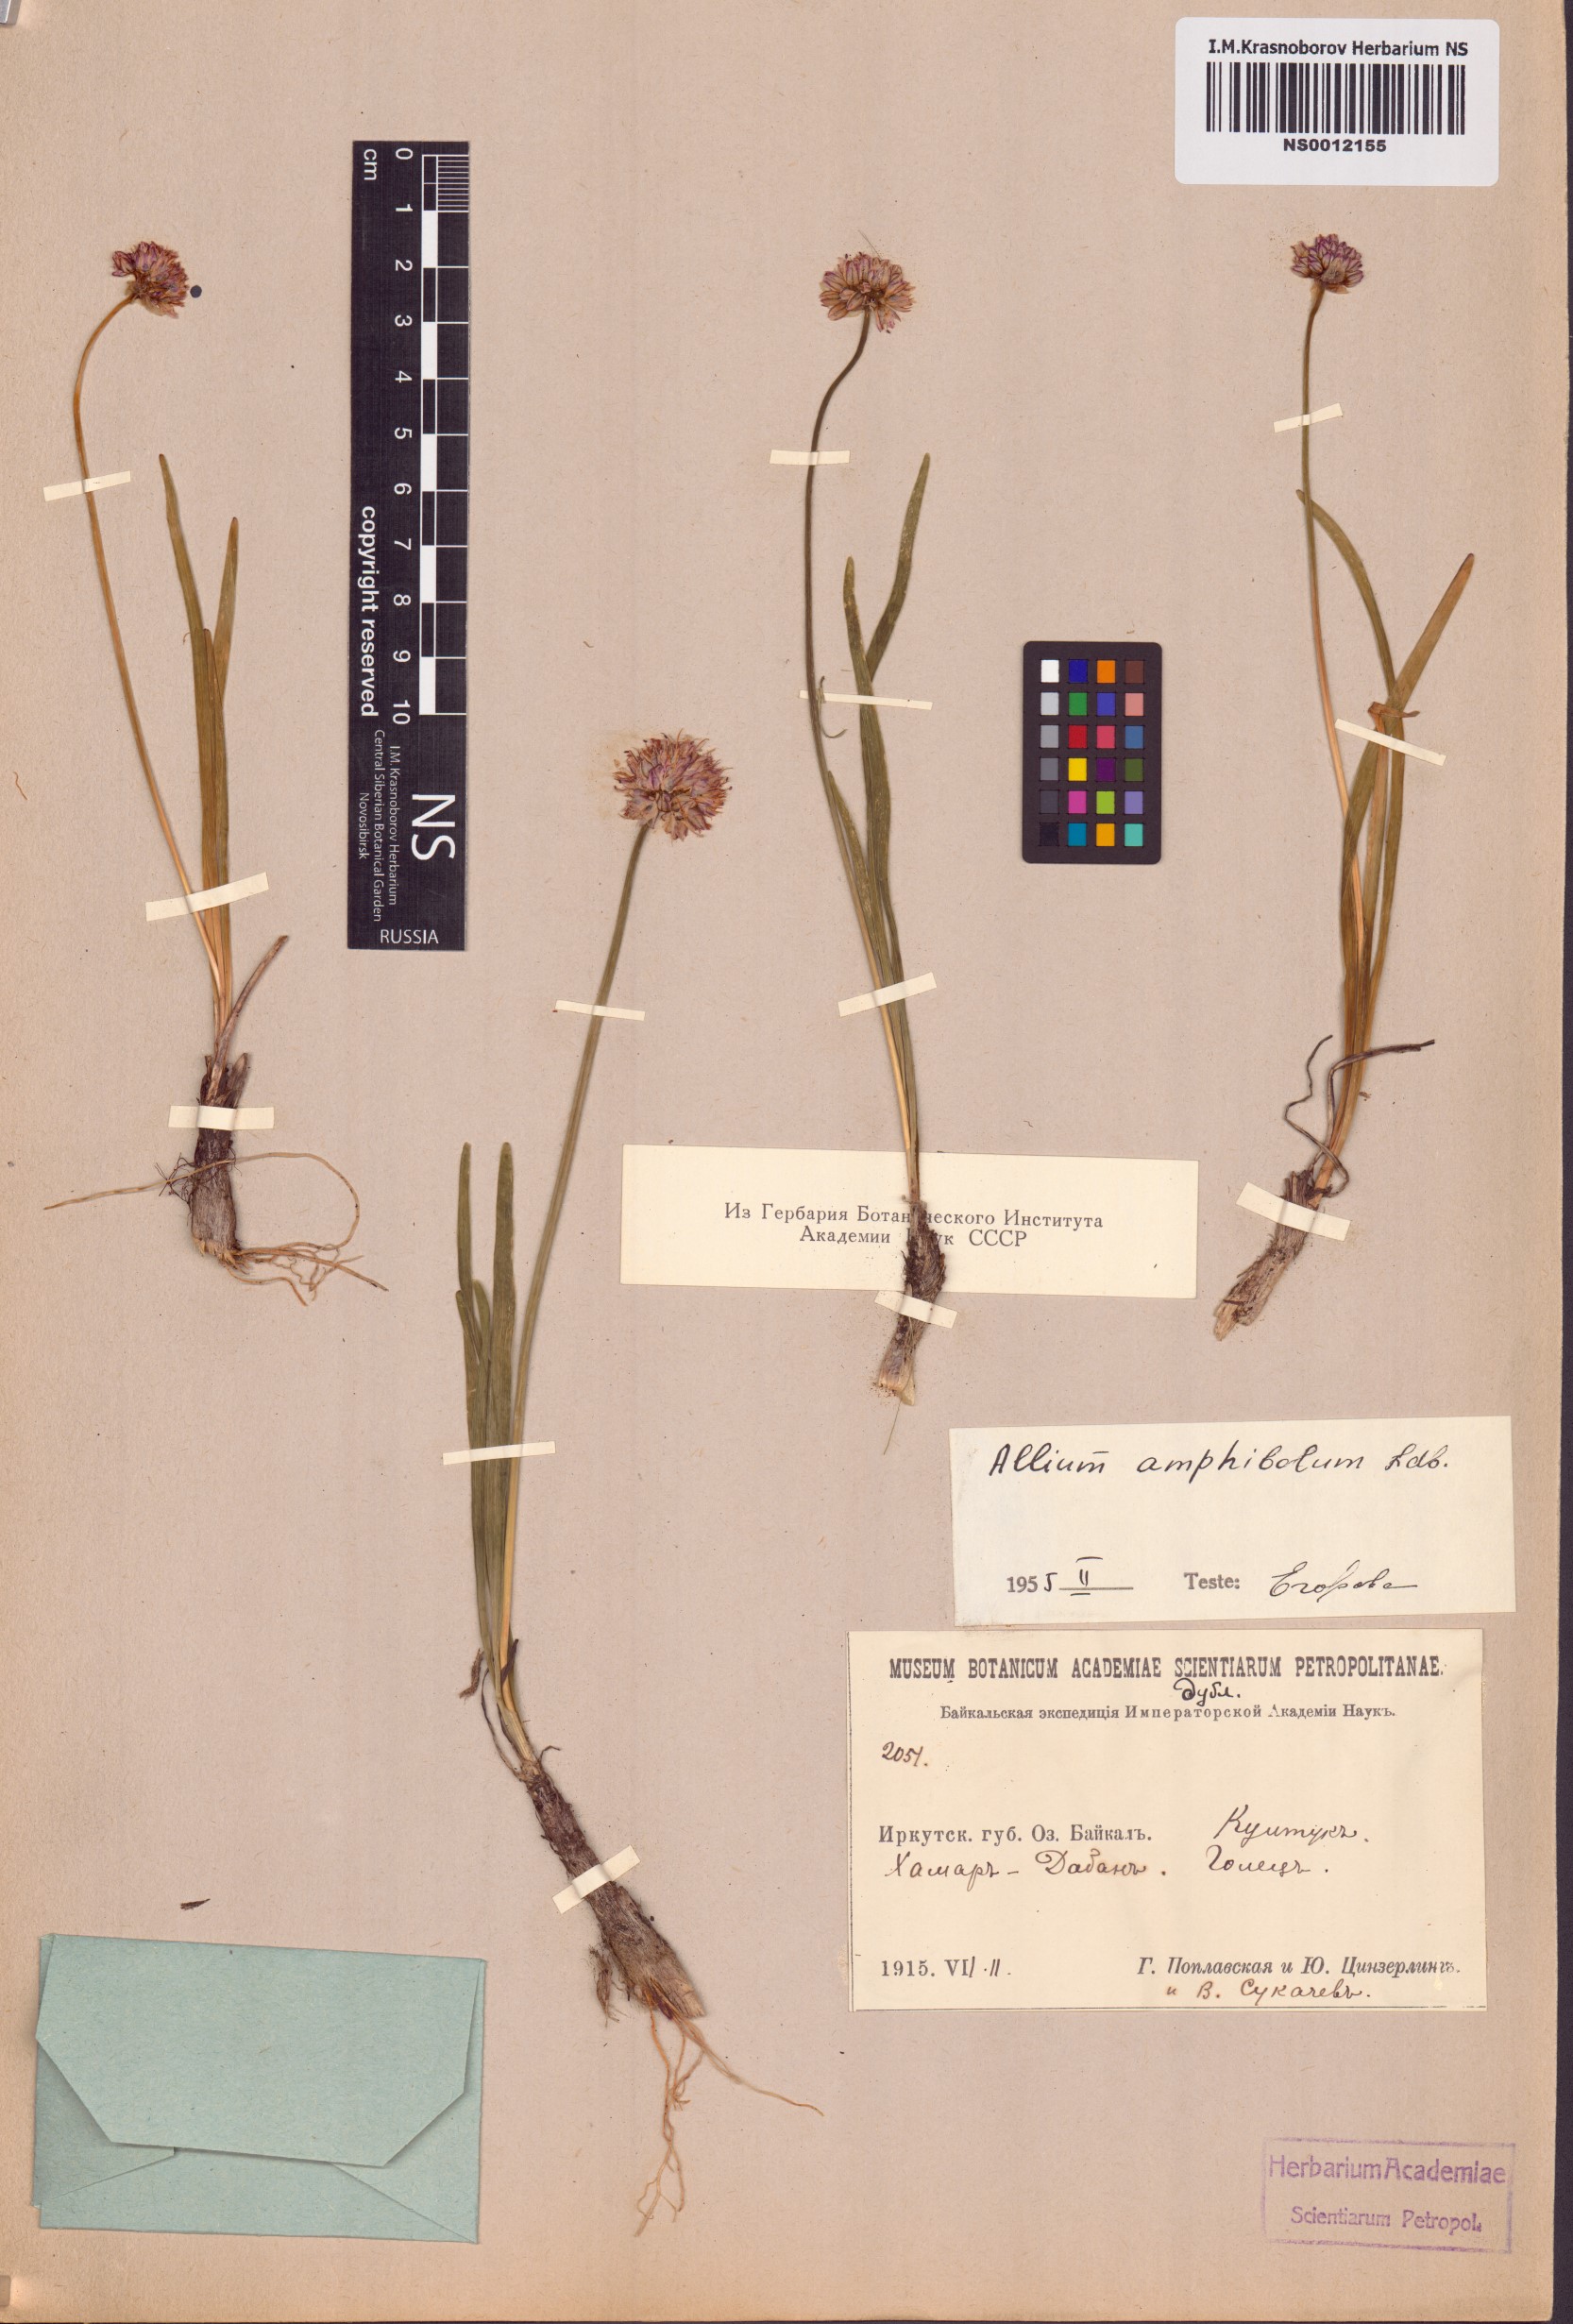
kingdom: Plantae
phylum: Tracheophyta
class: Liliopsida
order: Asparagales
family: Amaryllidaceae
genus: Allium
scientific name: Allium amphibolum
